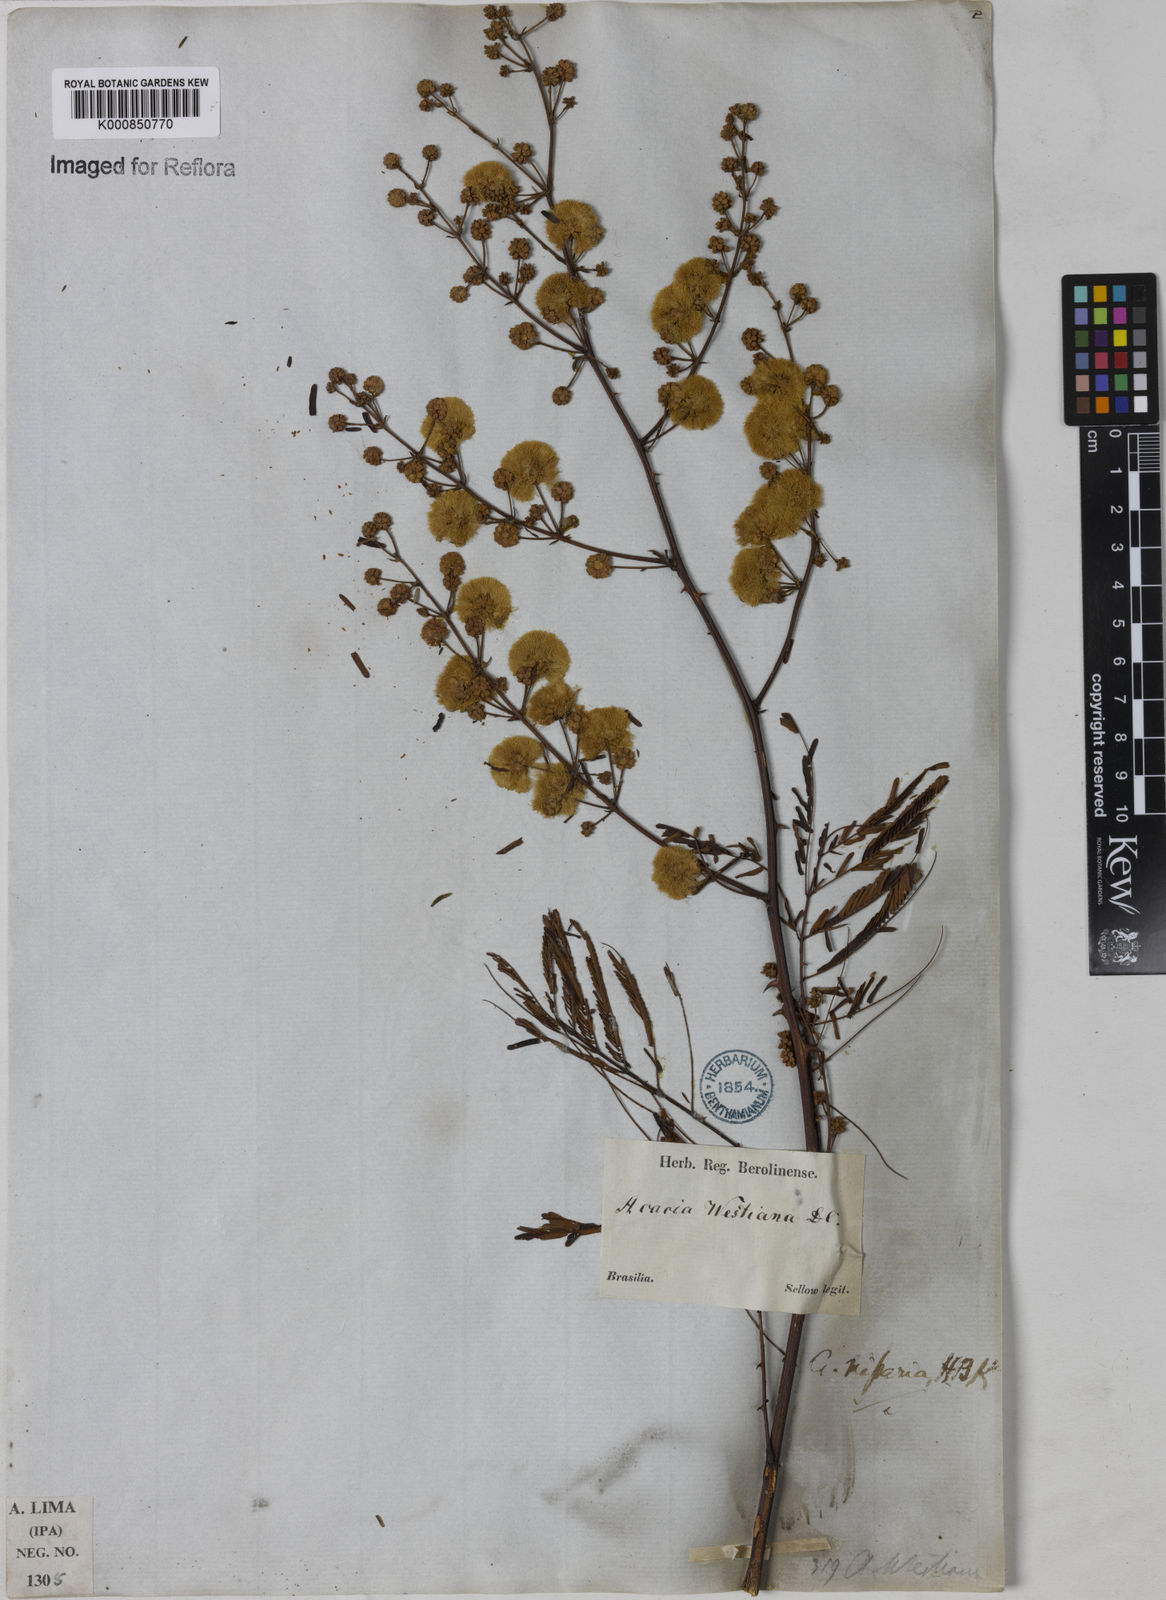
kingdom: Plantae
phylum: Tracheophyta
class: Magnoliopsida
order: Fabales
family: Fabaceae
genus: Senegalia
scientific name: Senegalia riparia
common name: Catch-and-keep
